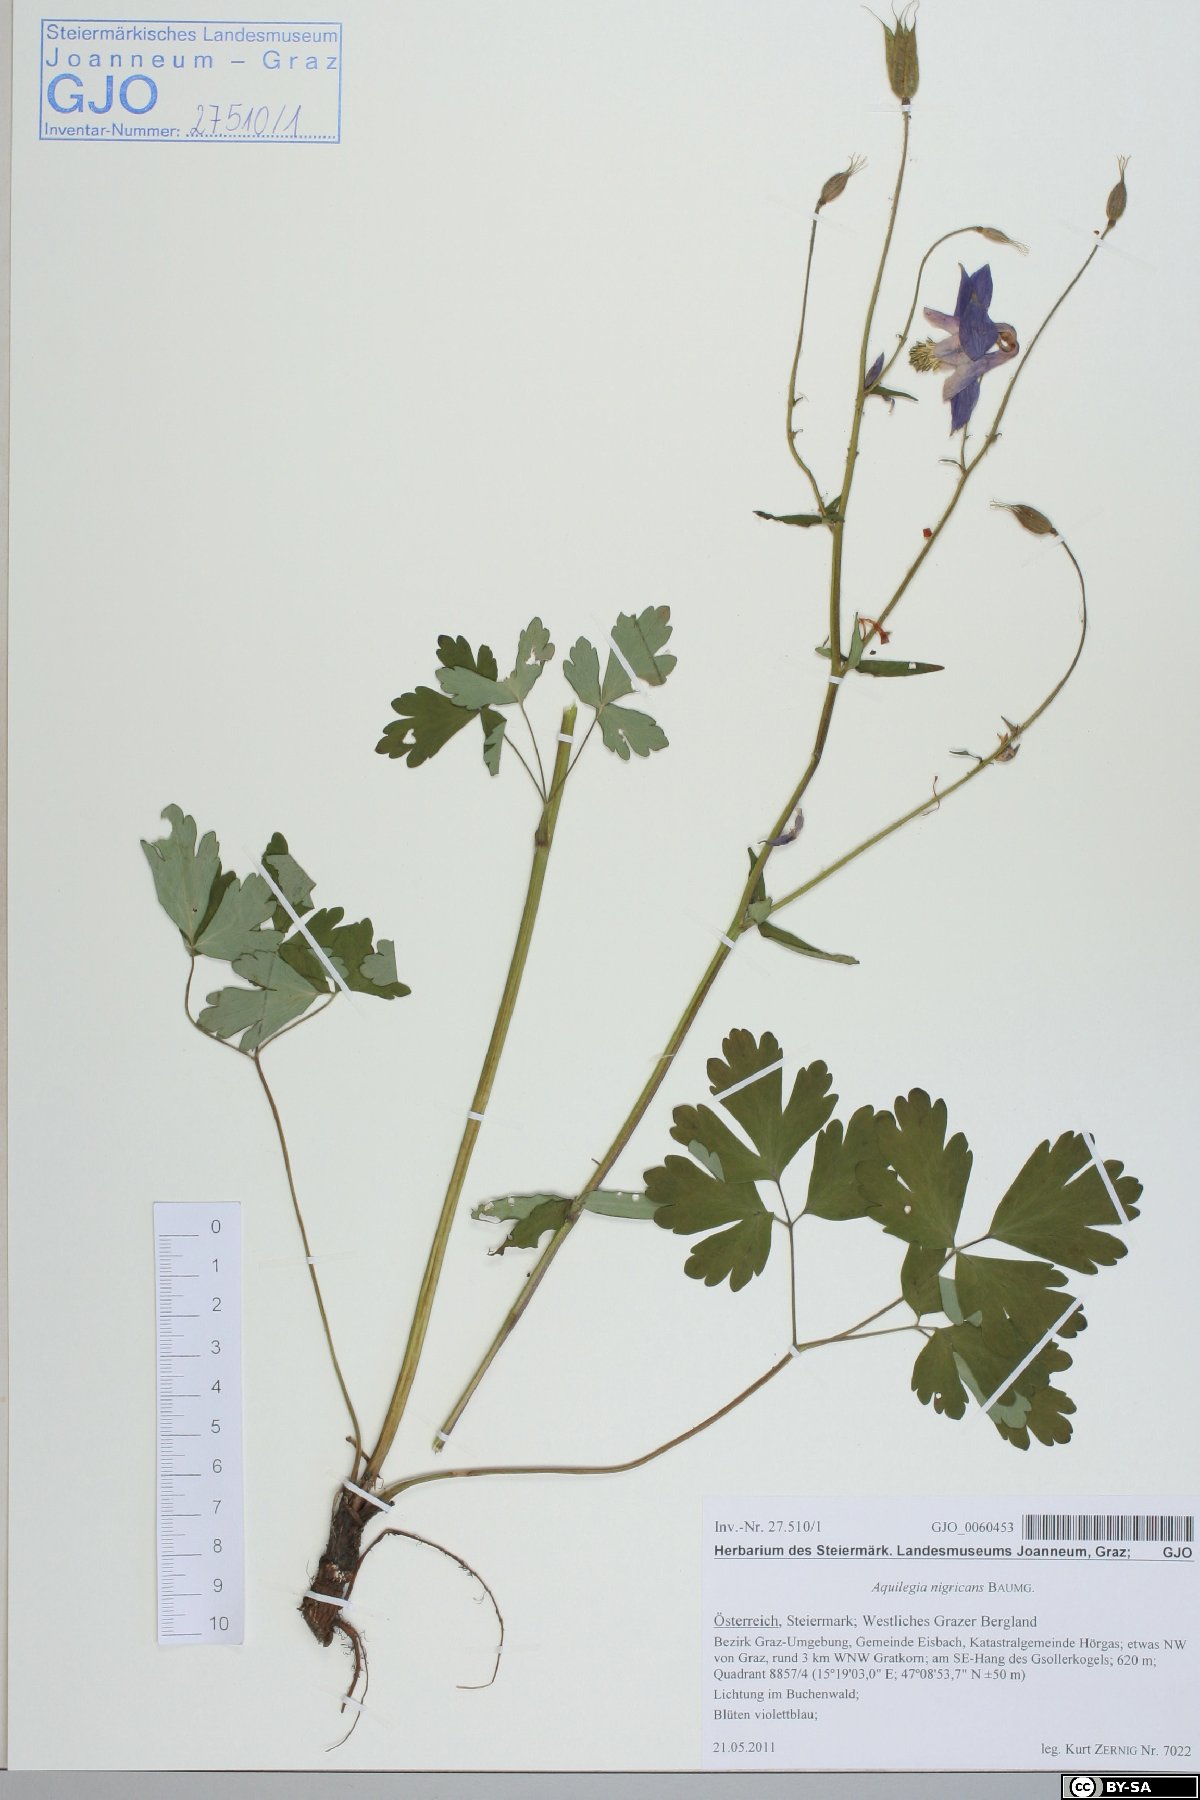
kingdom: Plantae
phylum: Tracheophyta
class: Magnoliopsida
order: Ranunculales
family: Ranunculaceae
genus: Aquilegia
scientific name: Aquilegia nigricans
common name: Bulgarian columbine
